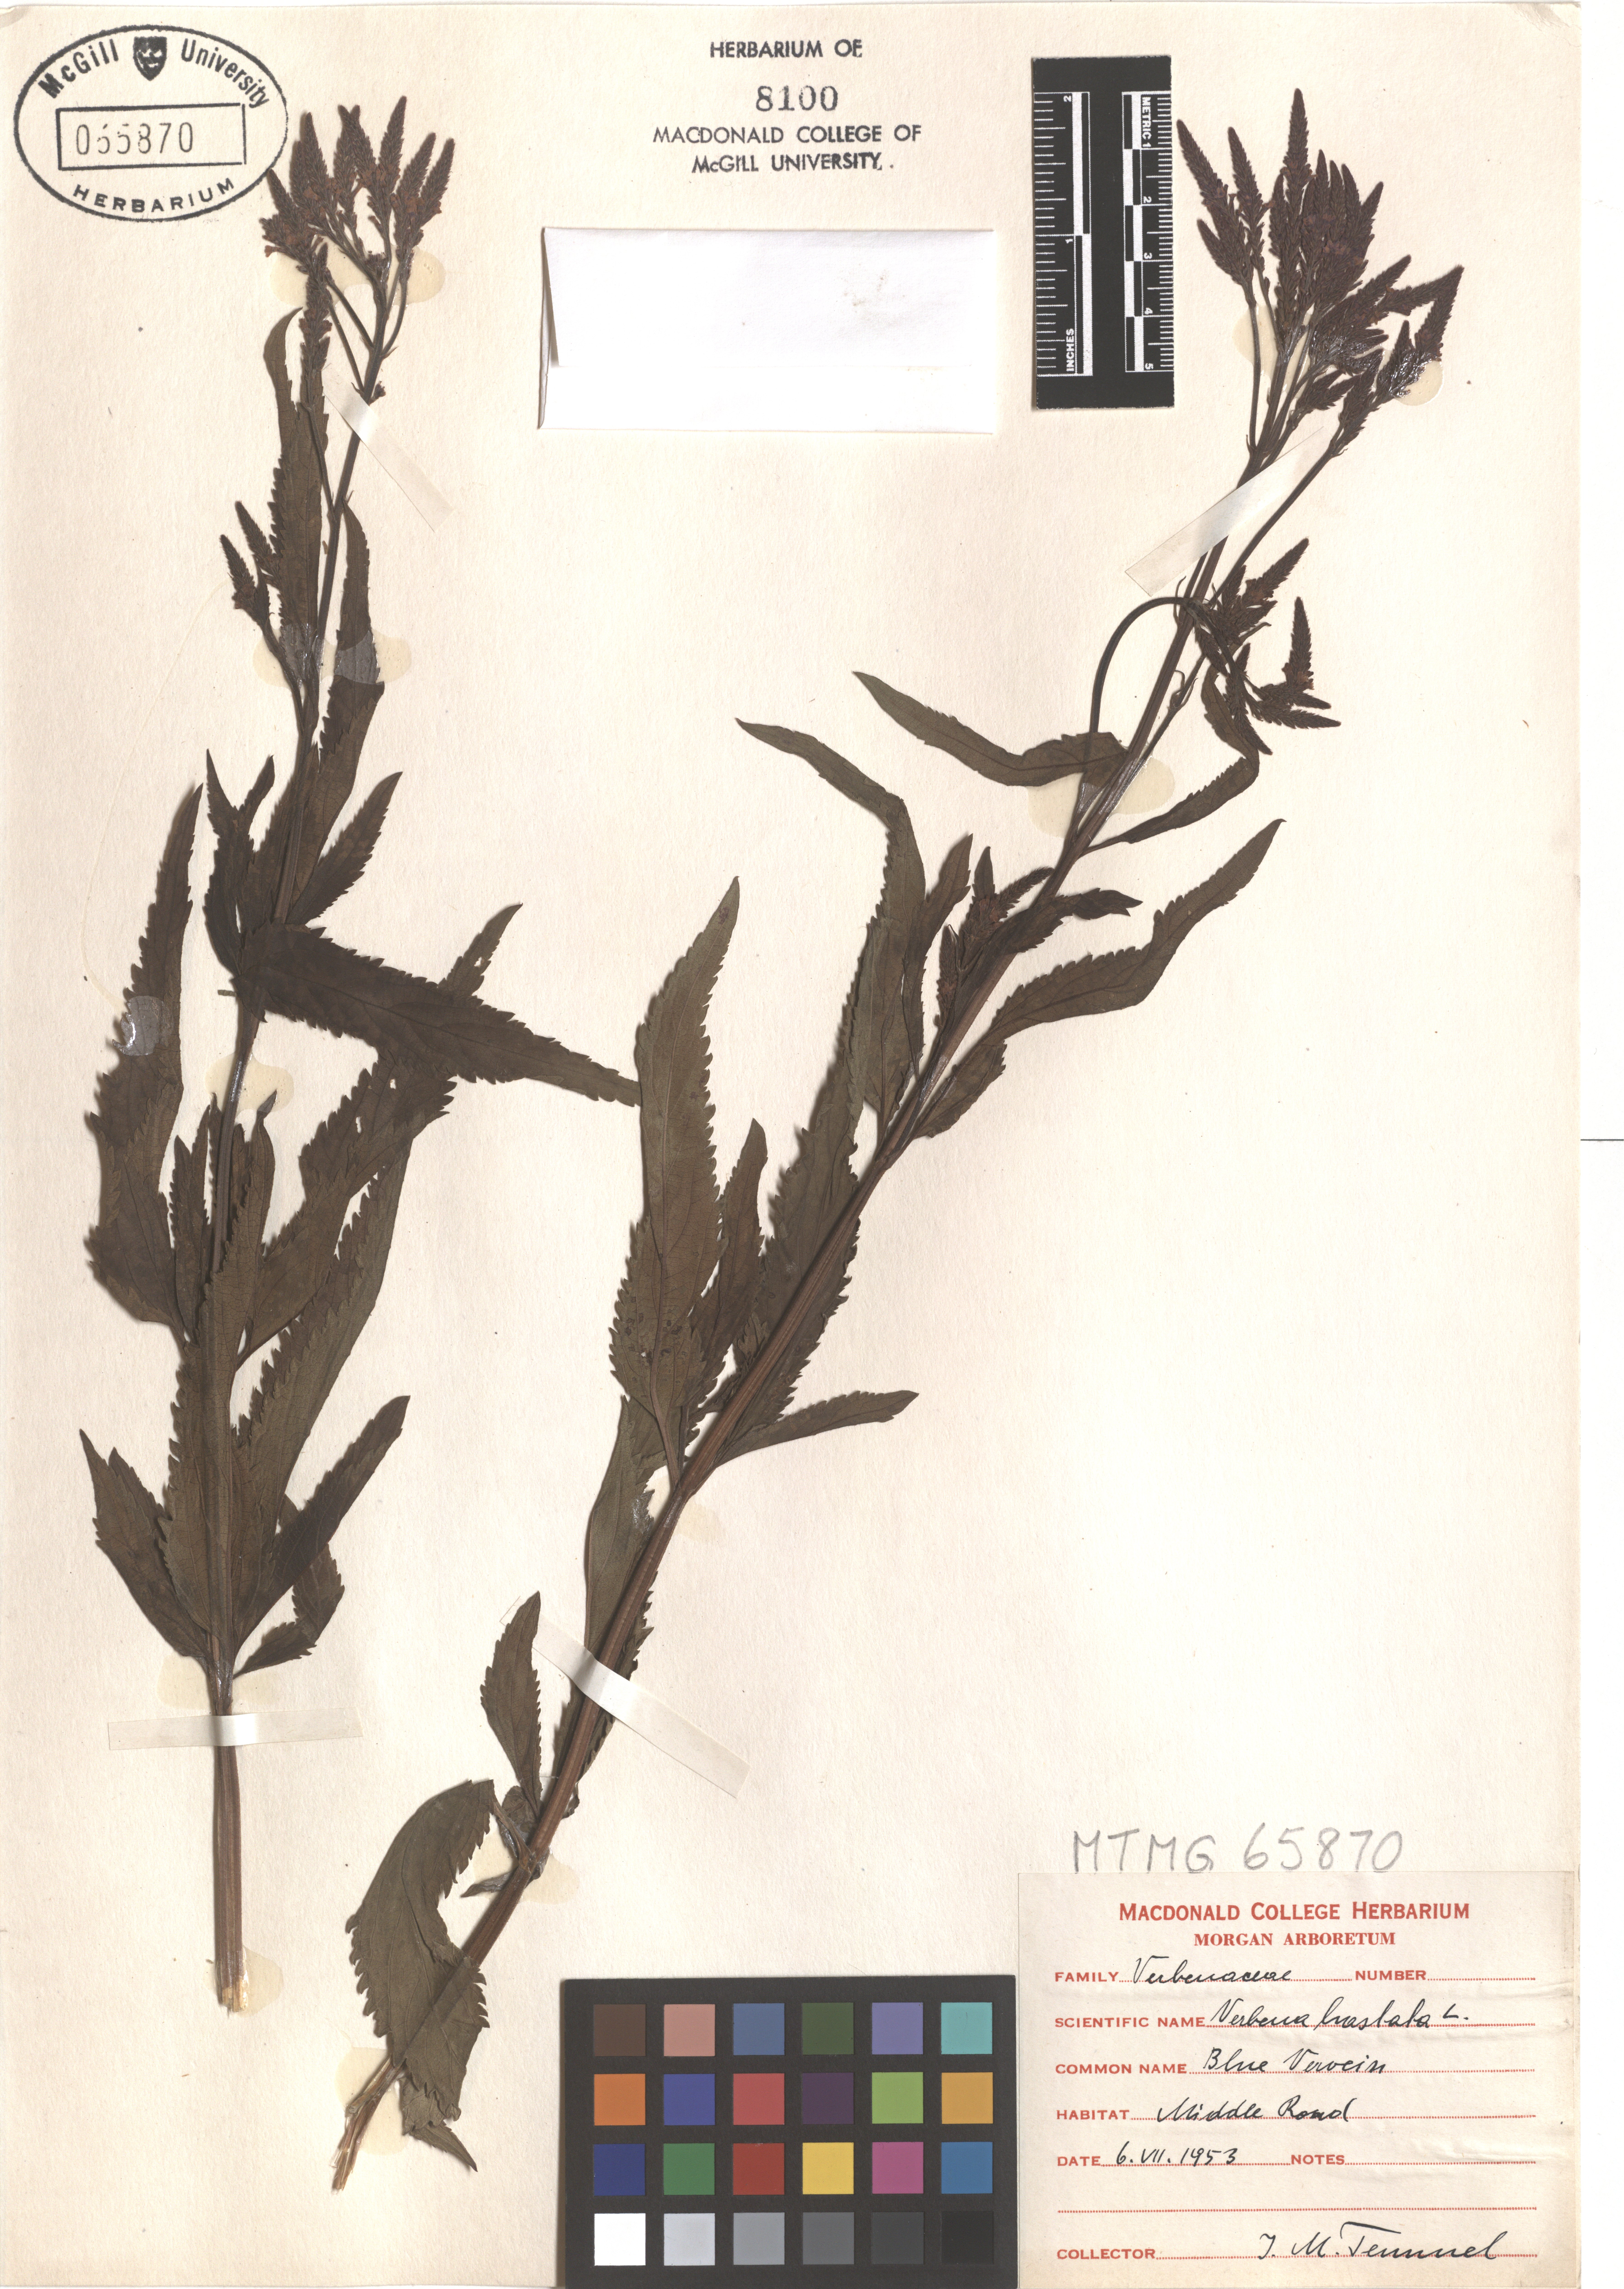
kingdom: Plantae
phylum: Tracheophyta
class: Magnoliopsida
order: Lamiales
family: Verbenaceae
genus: Verbena
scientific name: Verbena hastata
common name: American blue vervain
